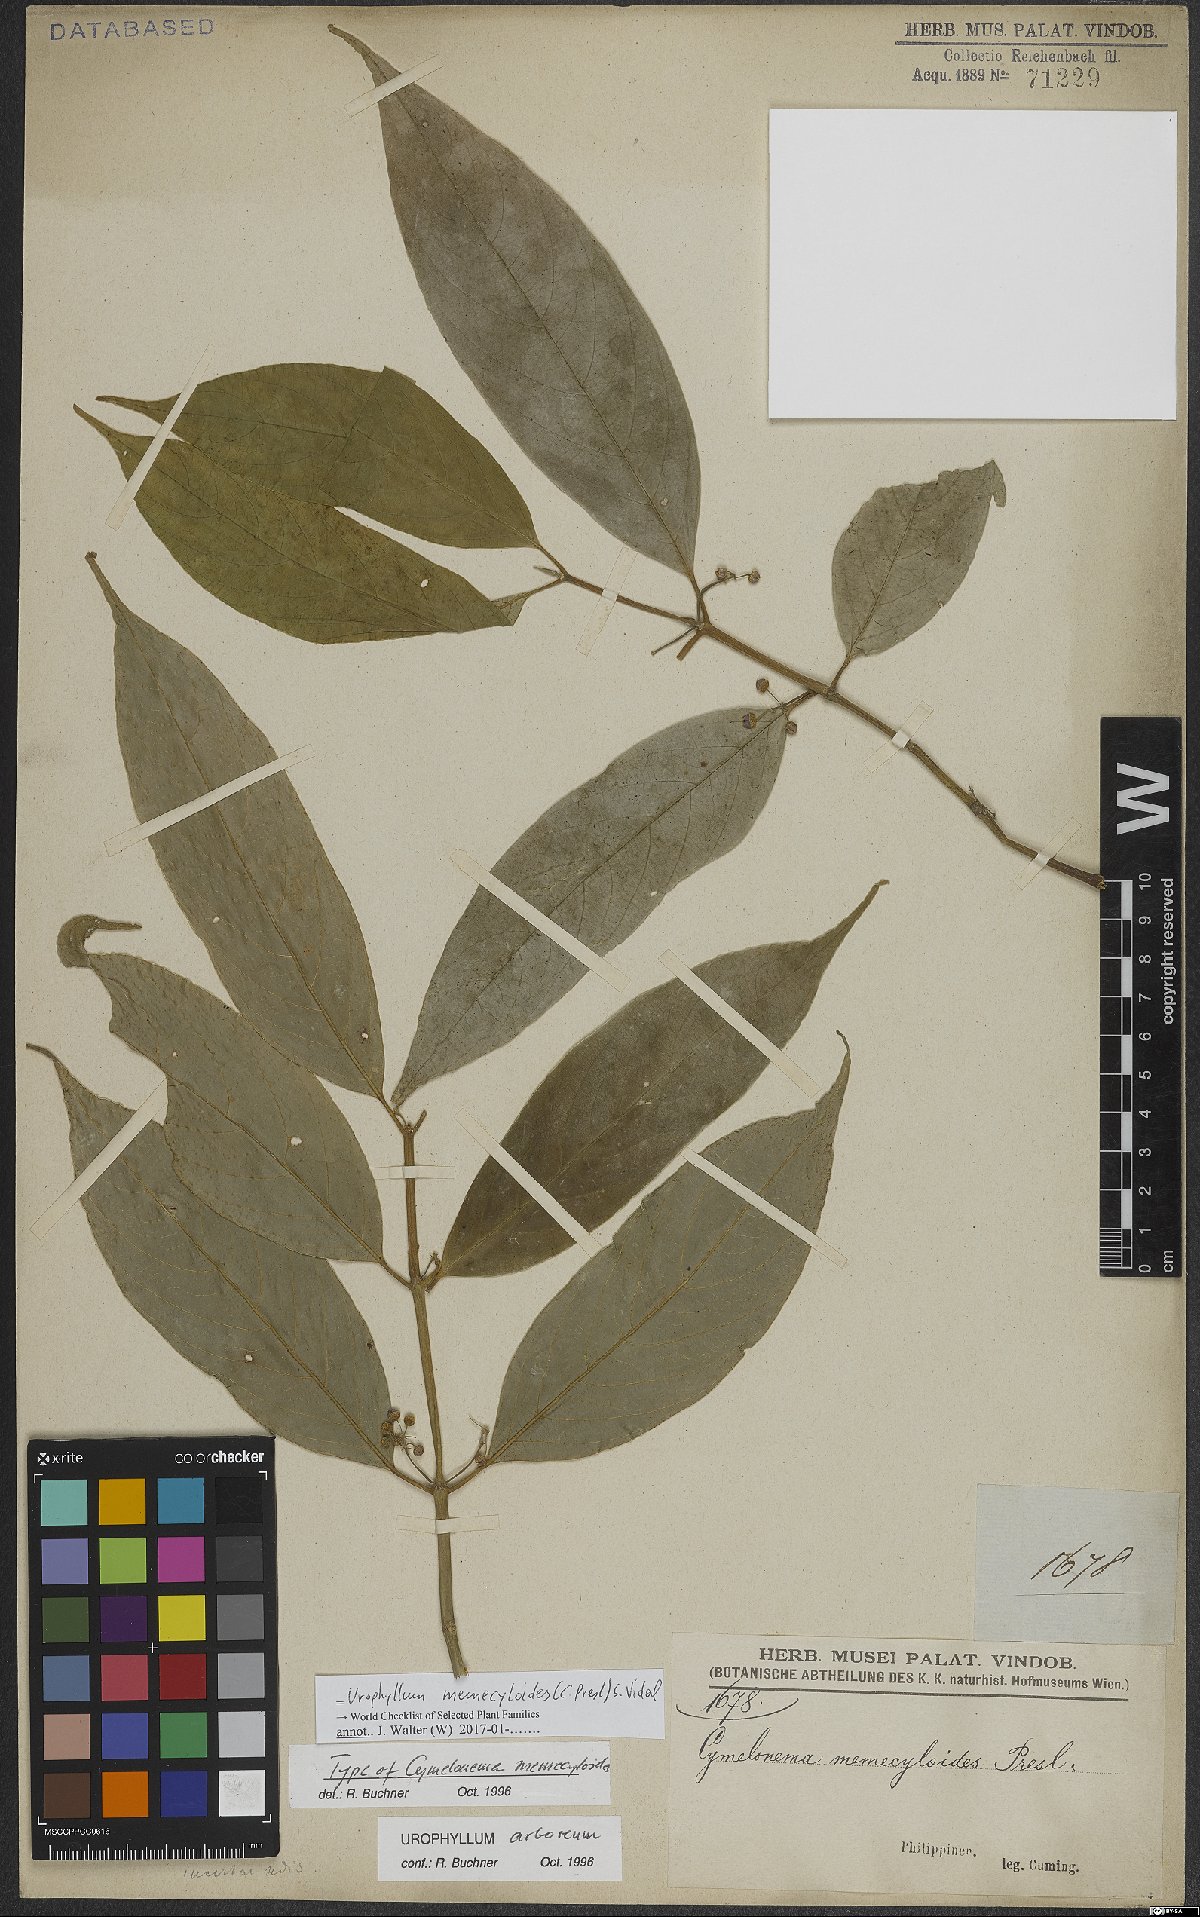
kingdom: Plantae
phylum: Tracheophyta
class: Magnoliopsida
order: Gentianales
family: Rubiaceae
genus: Urophyllum
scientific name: Urophyllum memecyloides
